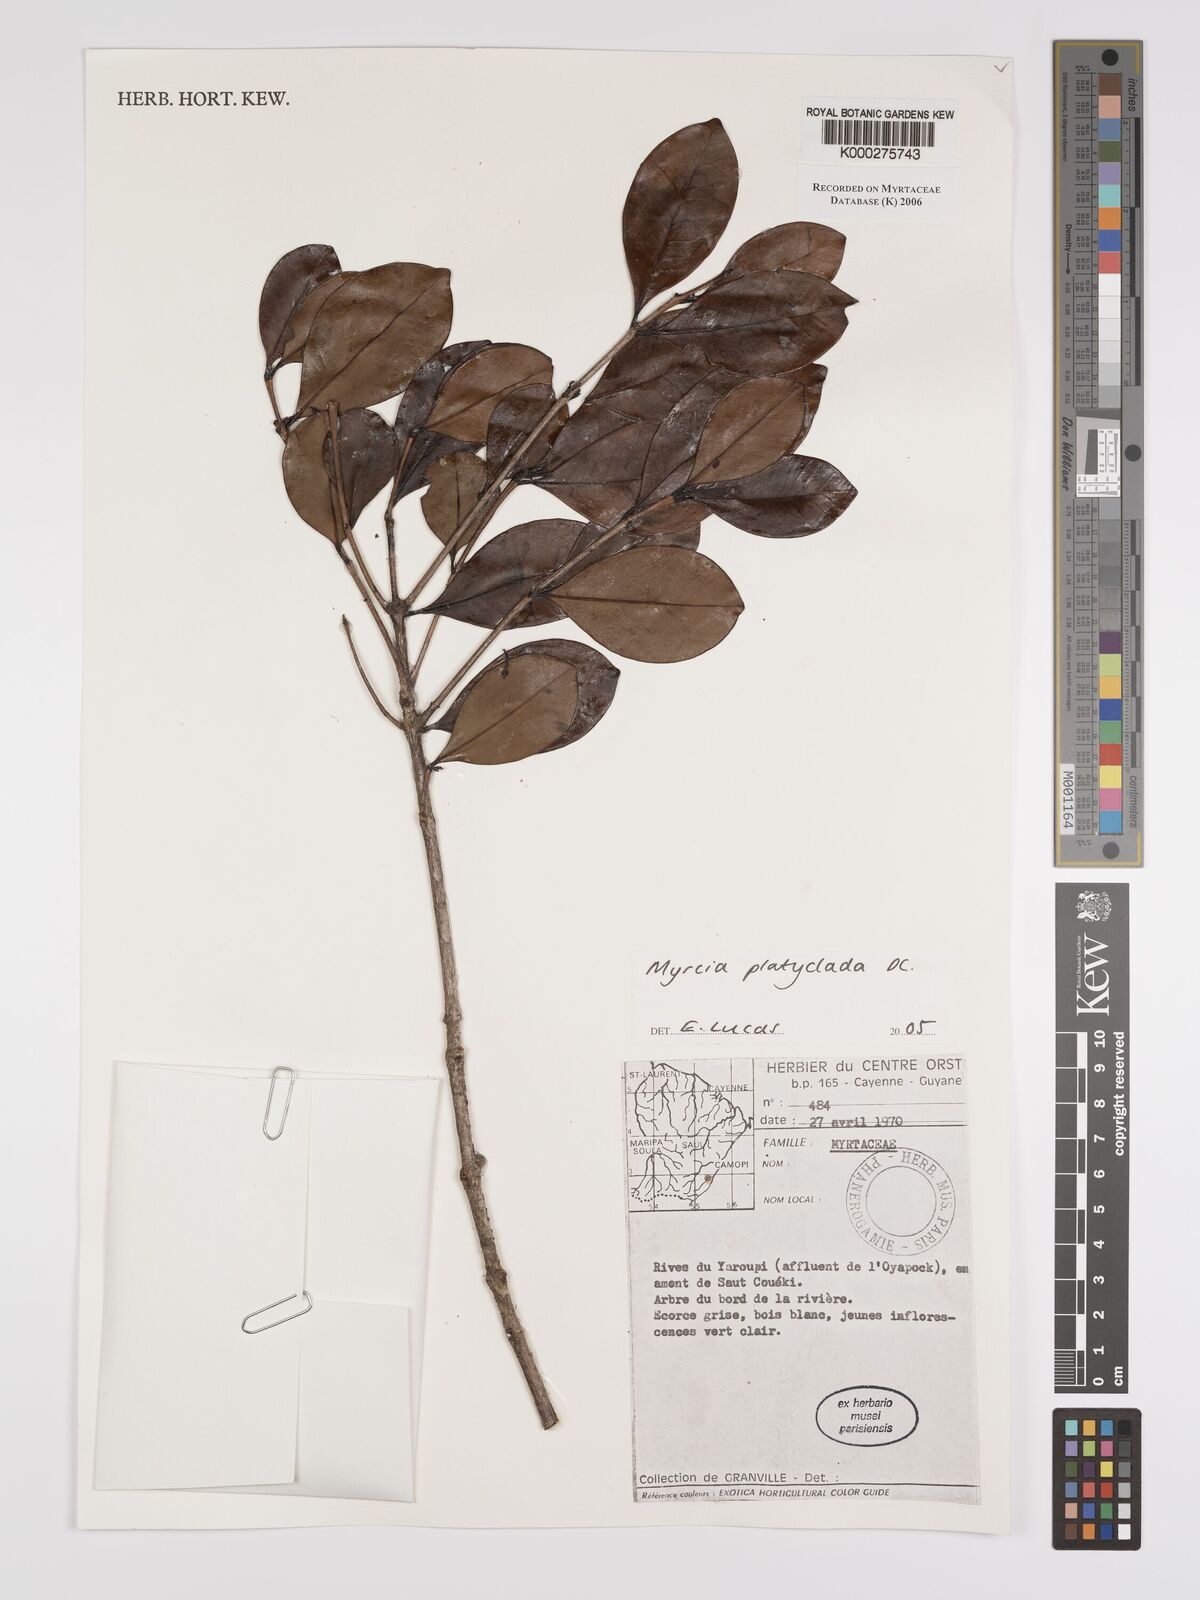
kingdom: Plantae
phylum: Tracheophyta
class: Magnoliopsida
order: Myrtales
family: Myrtaceae
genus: Myrcia
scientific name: Myrcia platyclada
